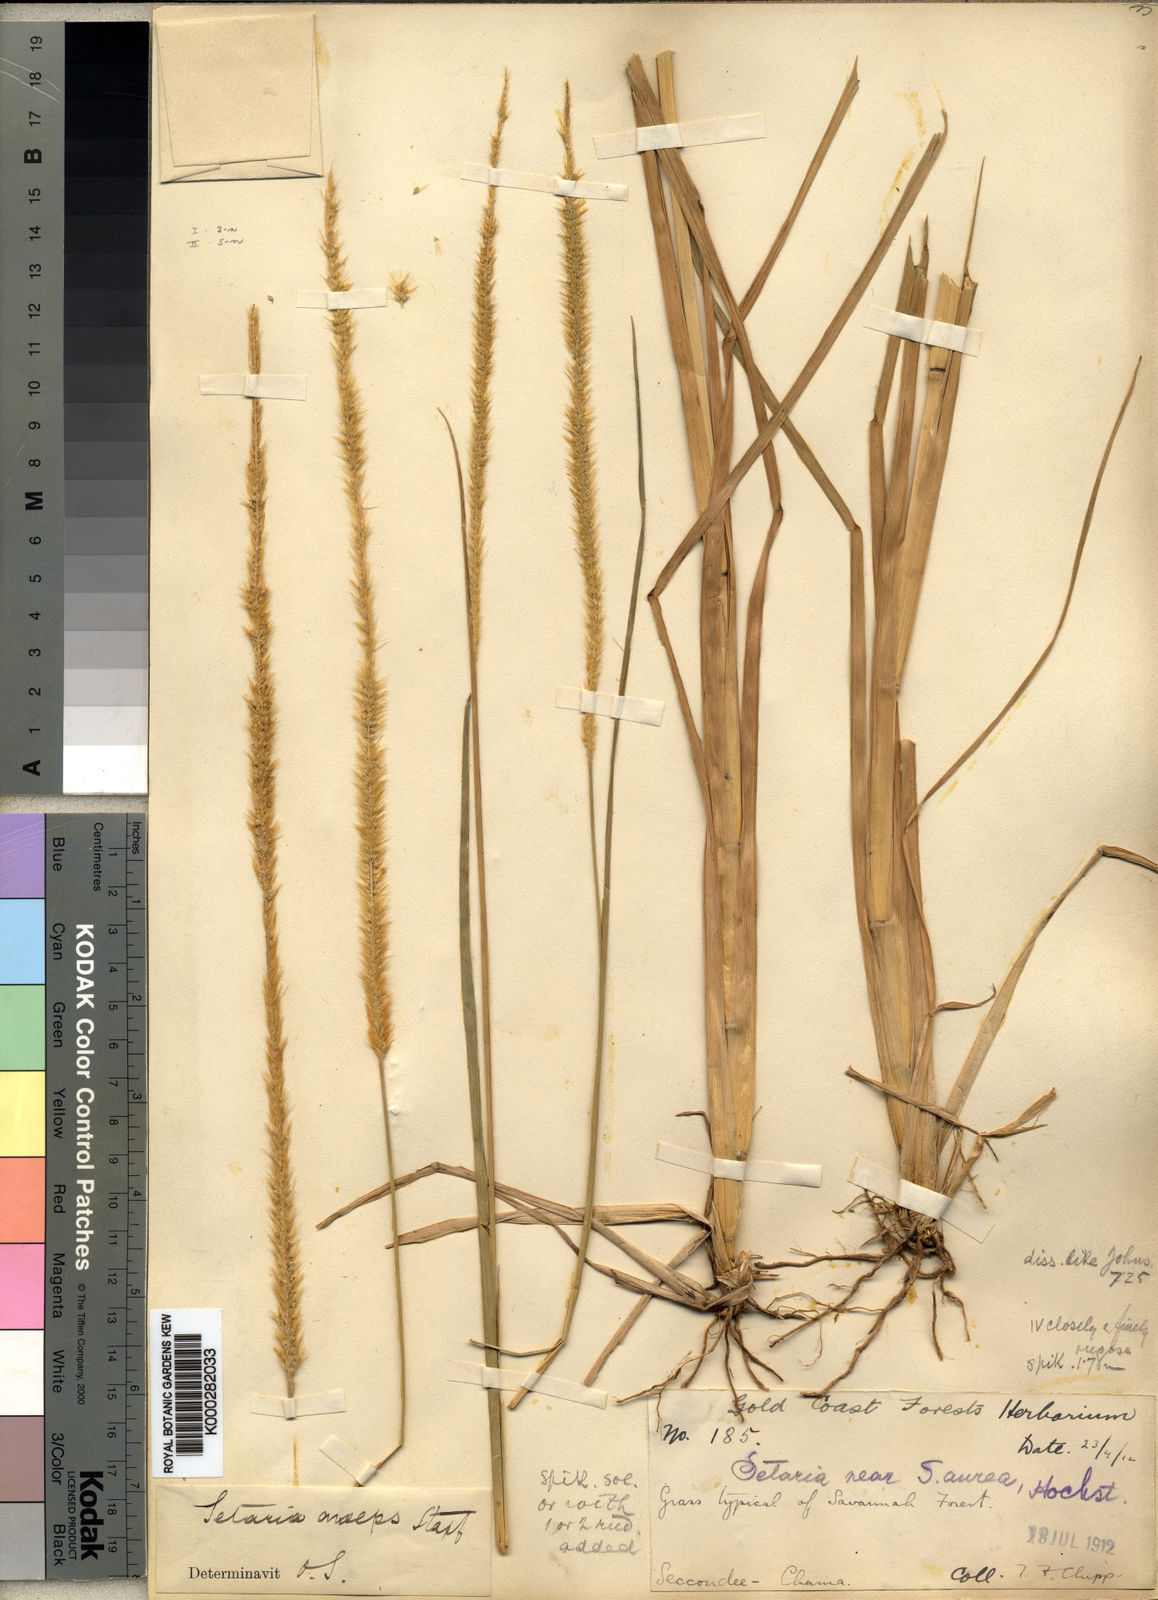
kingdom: Plantae
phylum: Tracheophyta
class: Liliopsida
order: Poales
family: Poaceae
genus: Setaria
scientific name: Setaria sphacelata
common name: African bristlegrass
